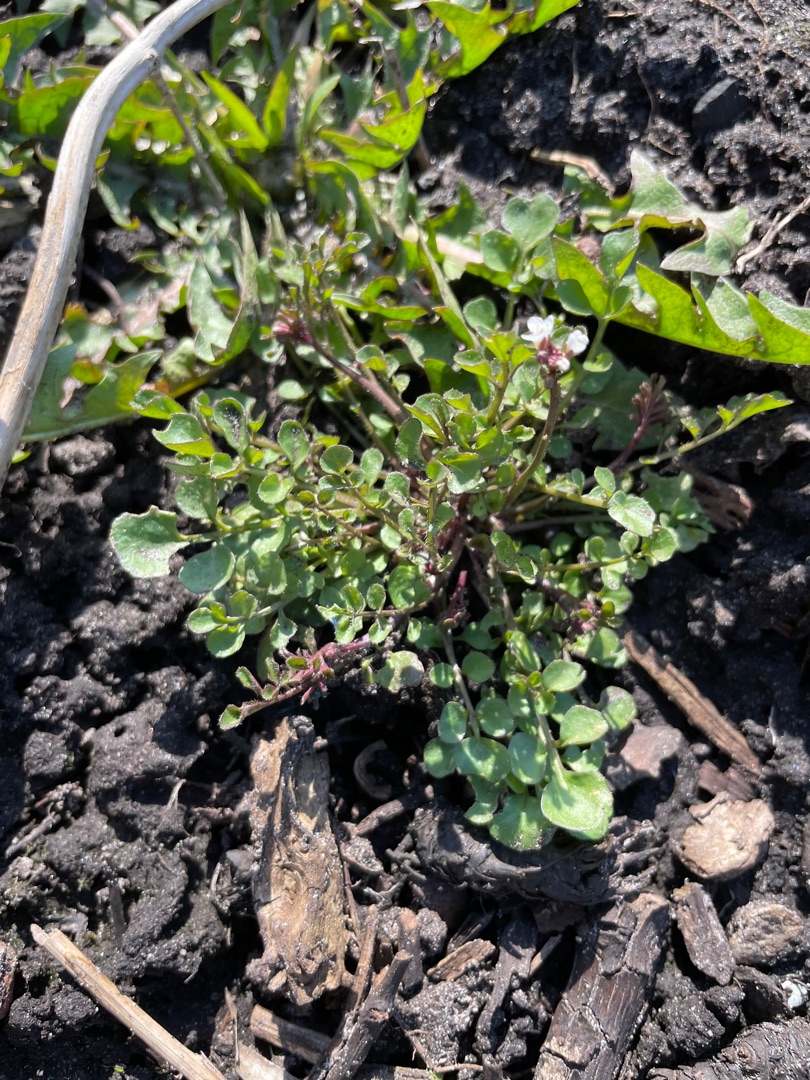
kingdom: Plantae
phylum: Tracheophyta
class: Magnoliopsida
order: Brassicales
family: Brassicaceae
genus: Cardamine
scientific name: Cardamine hirsuta
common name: Roset-springklap
